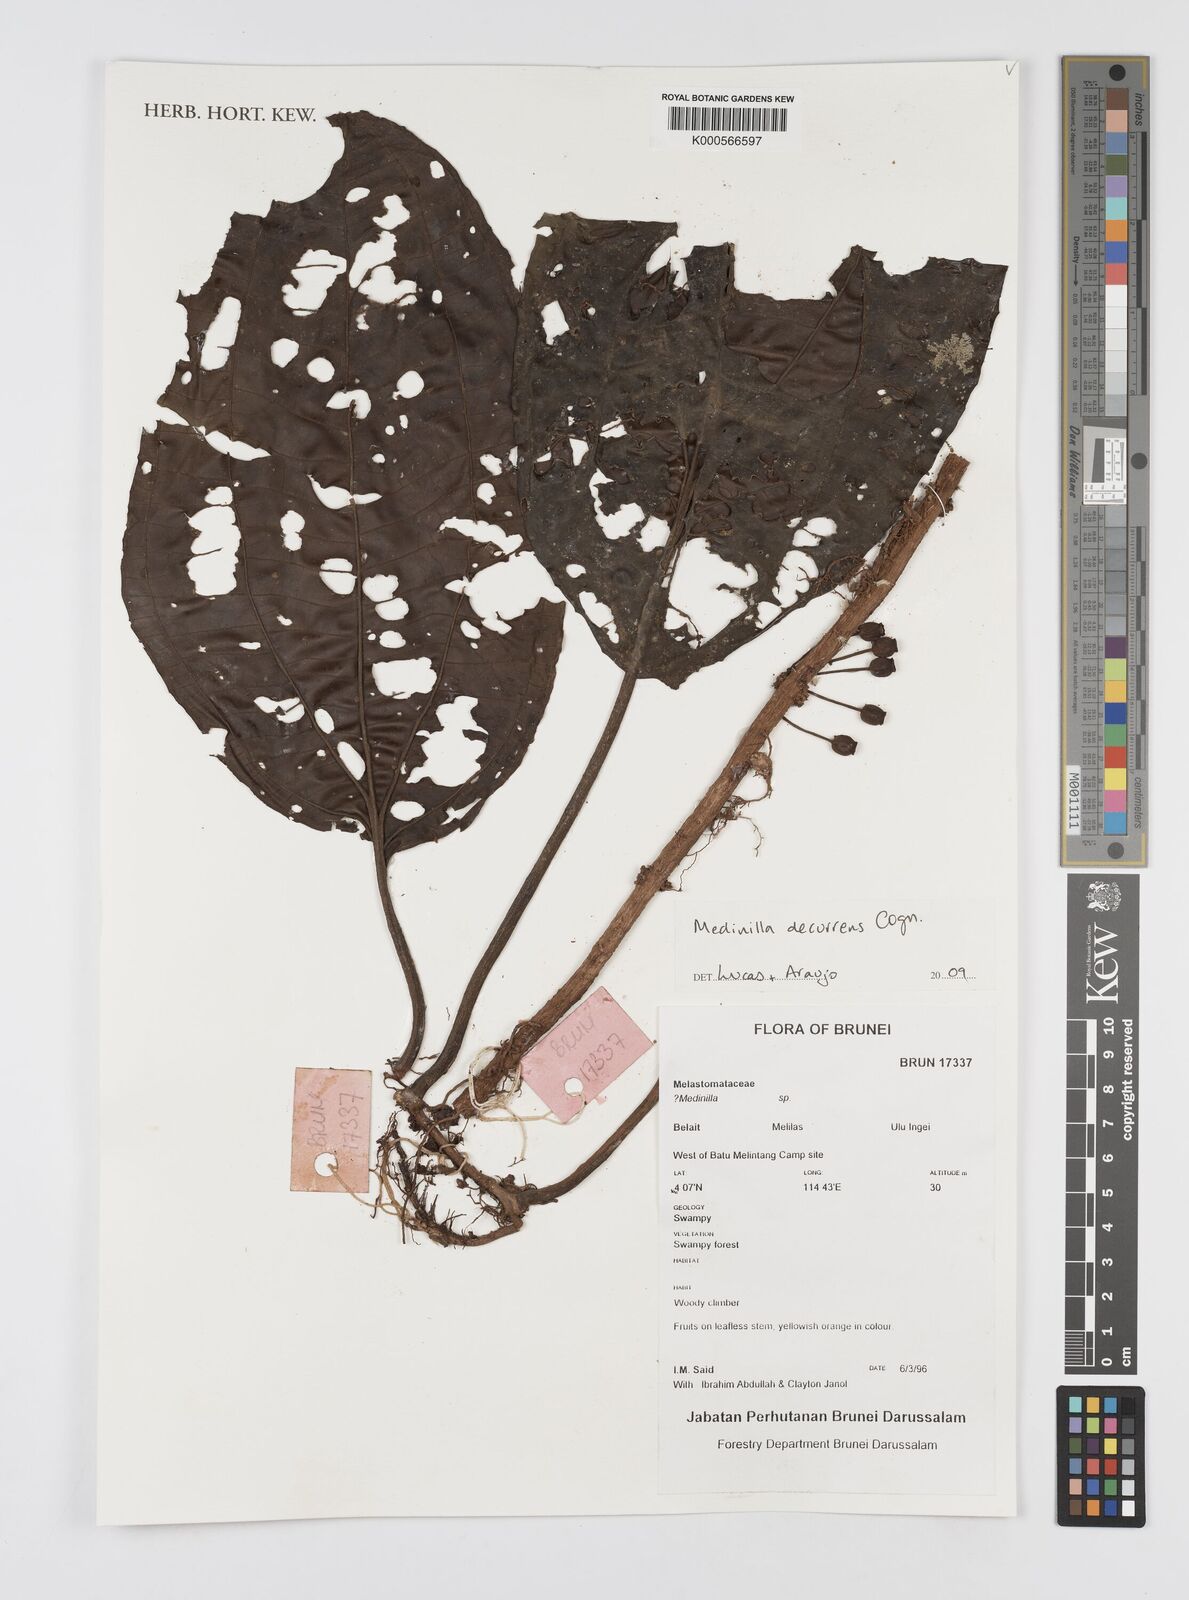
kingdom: Plantae
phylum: Tracheophyta
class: Magnoliopsida
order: Myrtales
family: Melastomataceae
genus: Heteroblemma
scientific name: Heteroblemma decurrens
